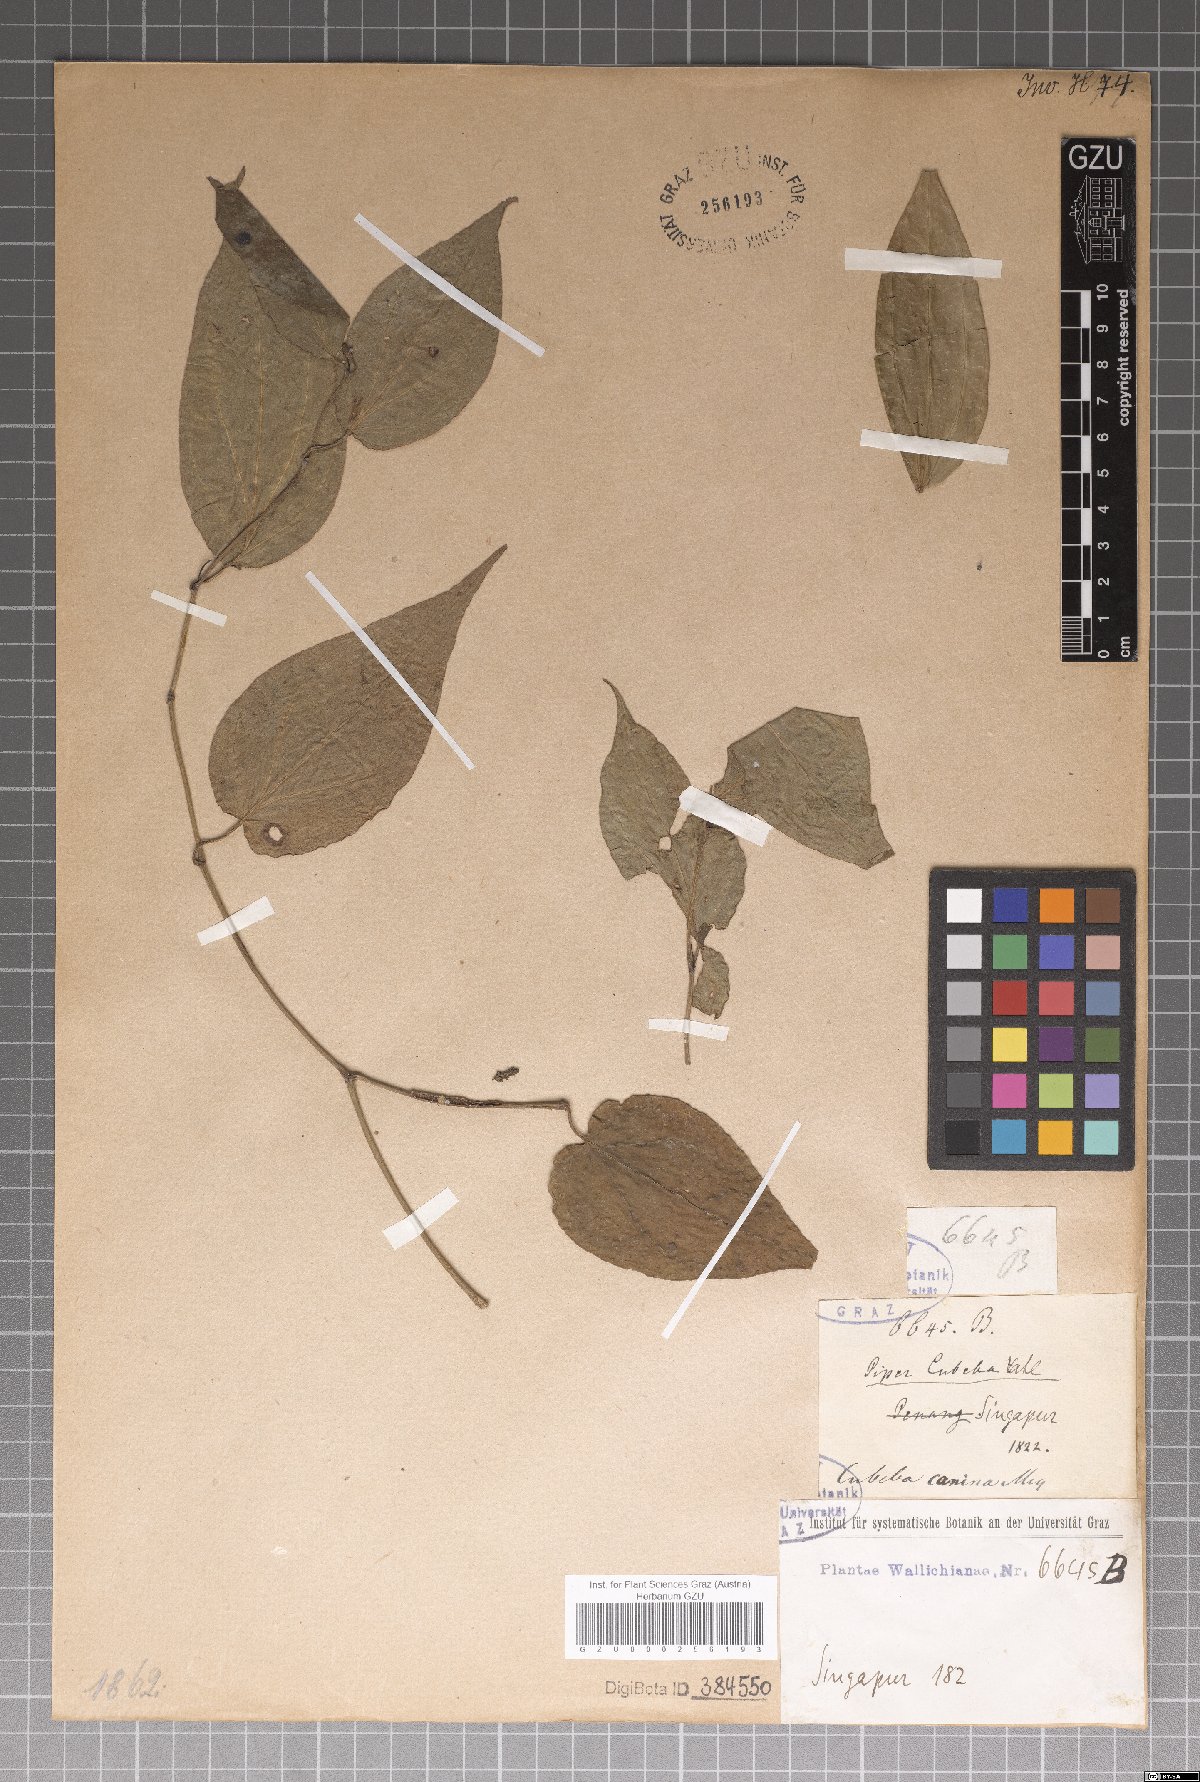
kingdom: Plantae
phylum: Tracheophyta
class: Magnoliopsida
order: Piperales
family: Piperaceae
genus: Piper
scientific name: Piper lanatum
